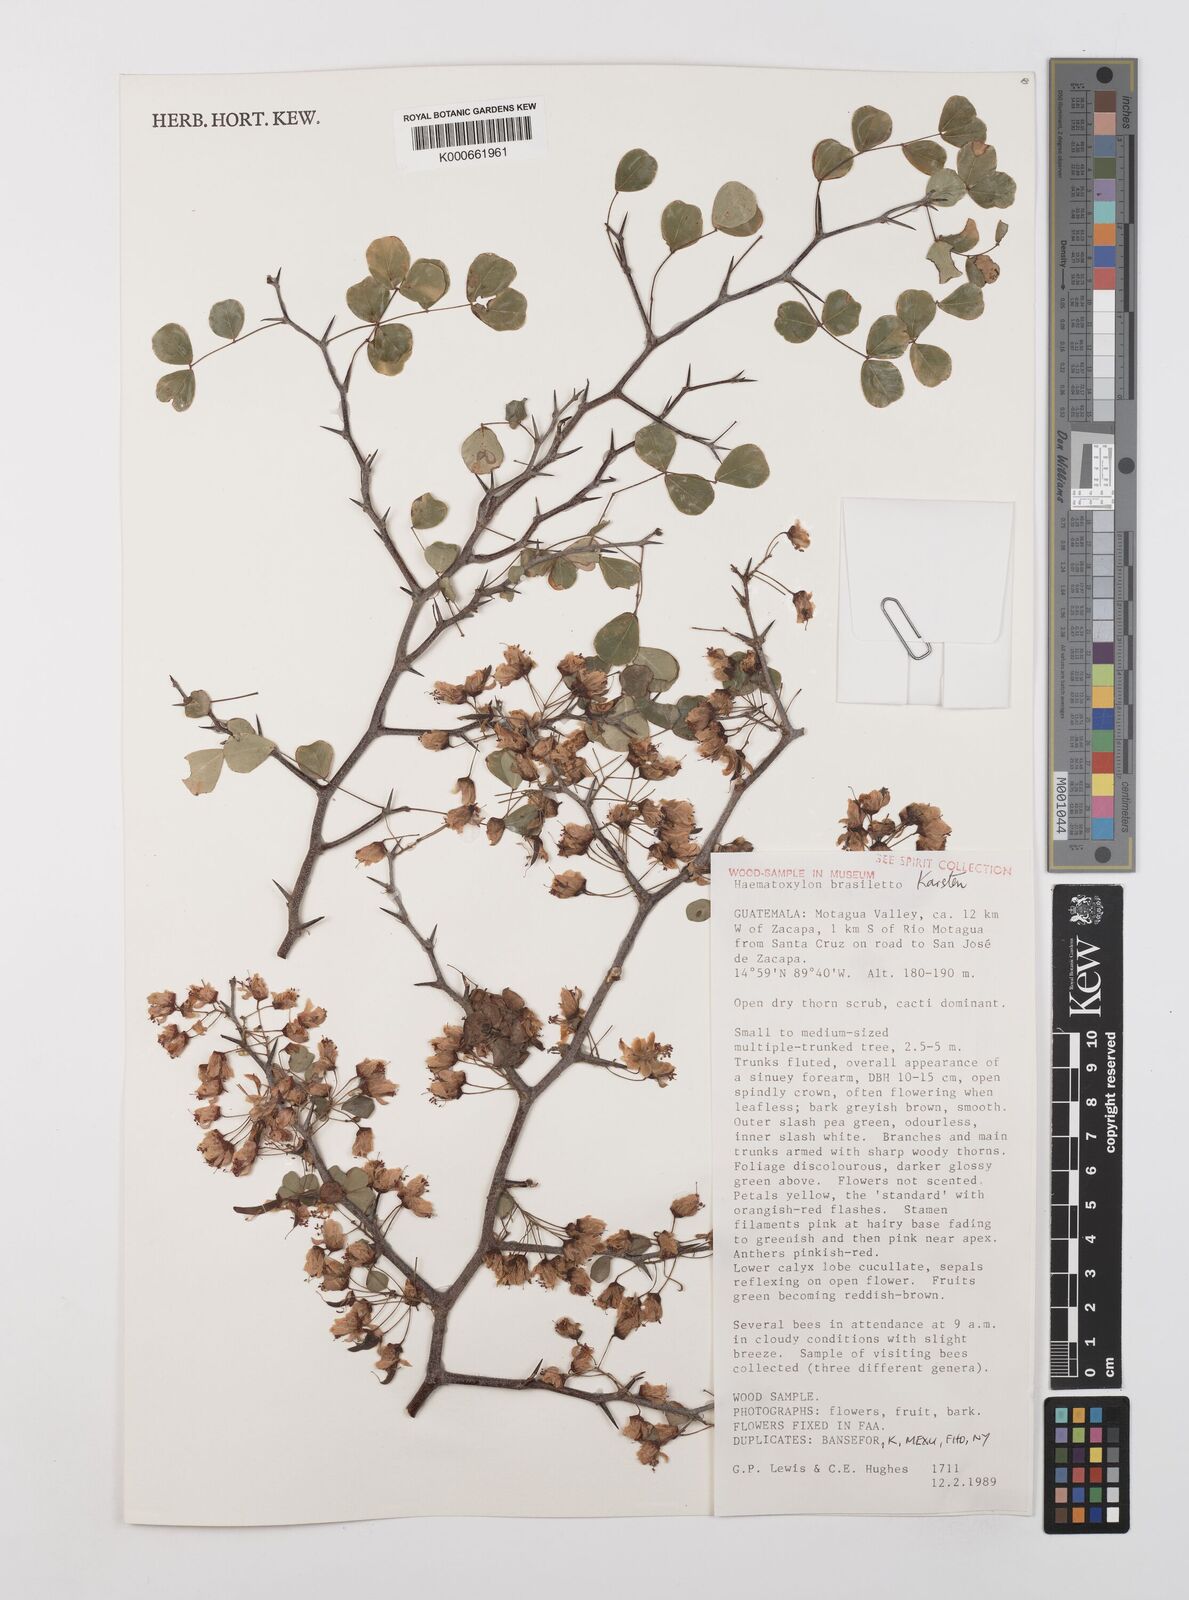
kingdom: Plantae
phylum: Tracheophyta
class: Magnoliopsida
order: Fabales
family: Fabaceae
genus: Haematoxylum
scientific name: Haematoxylum brasiletto
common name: Peachwood
